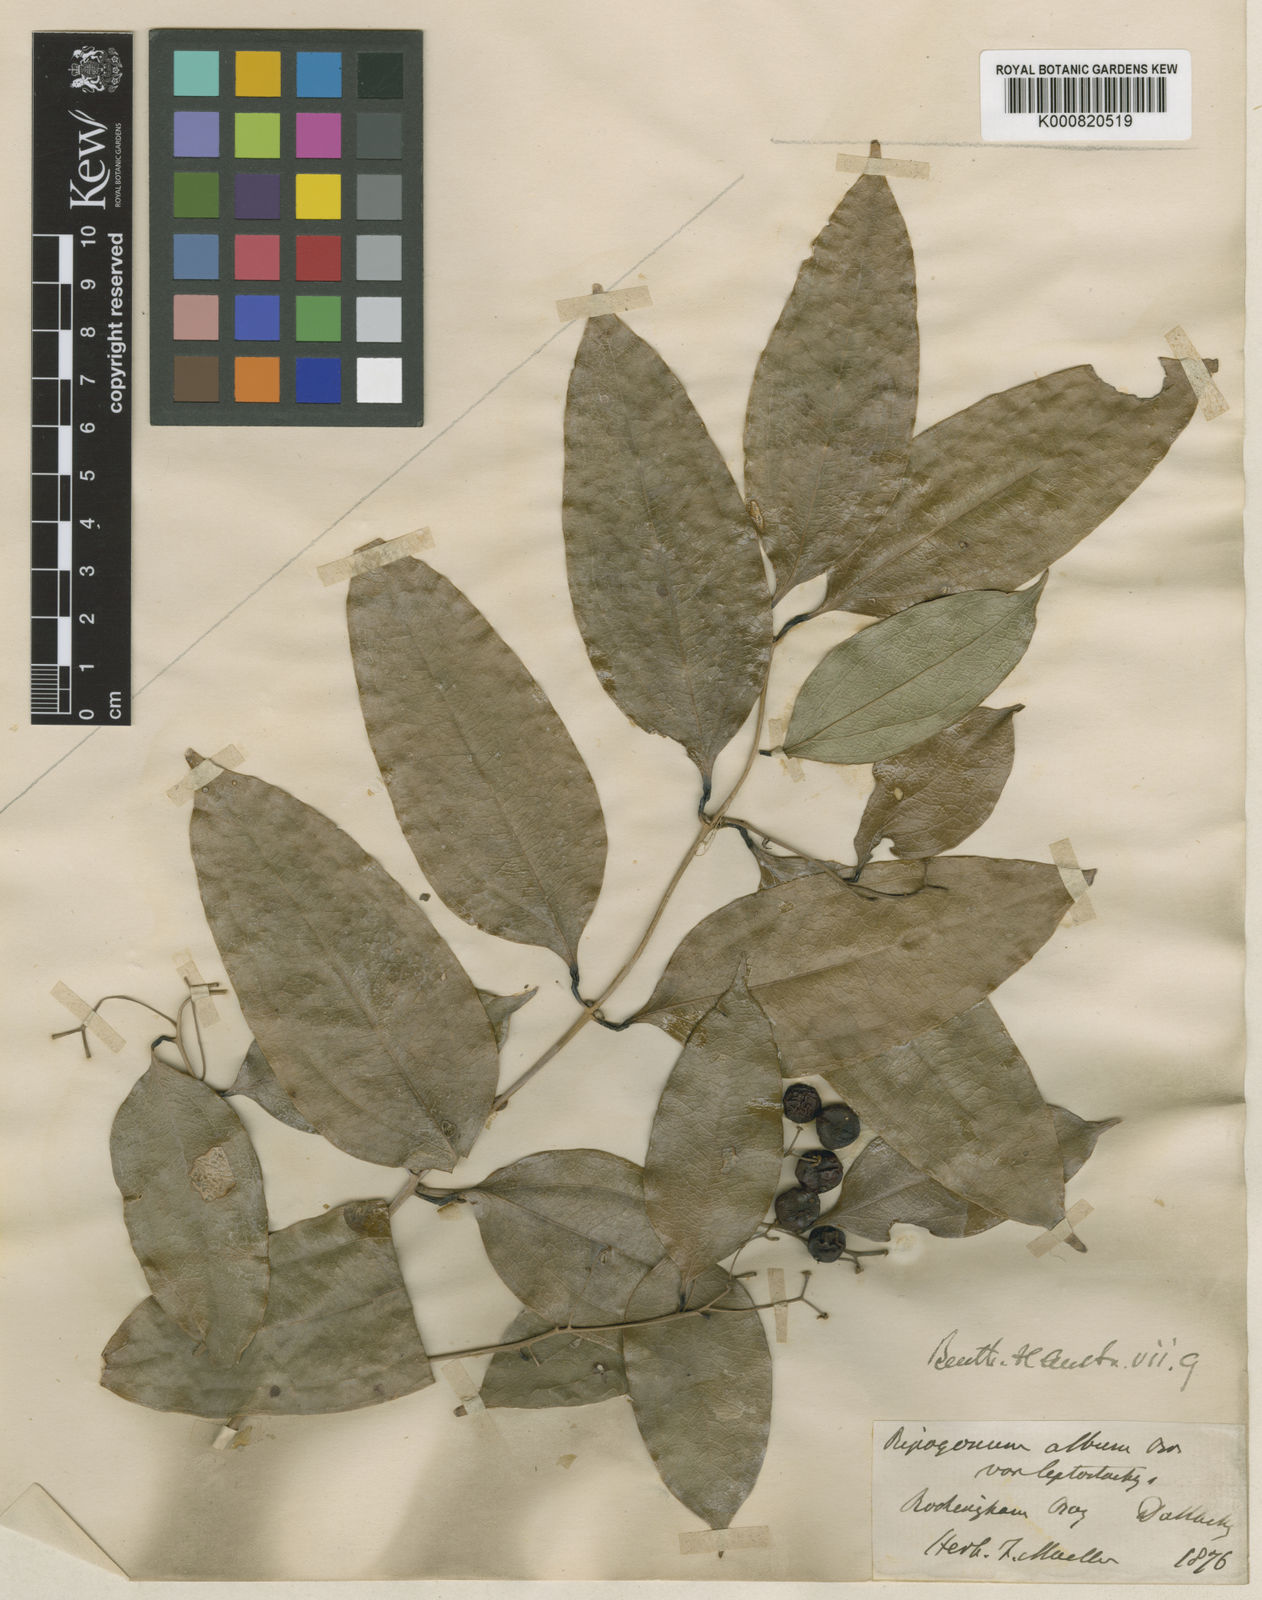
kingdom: Plantae
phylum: Tracheophyta
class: Liliopsida
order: Liliales
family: Ripogonaceae
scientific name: Ripogonaceae
